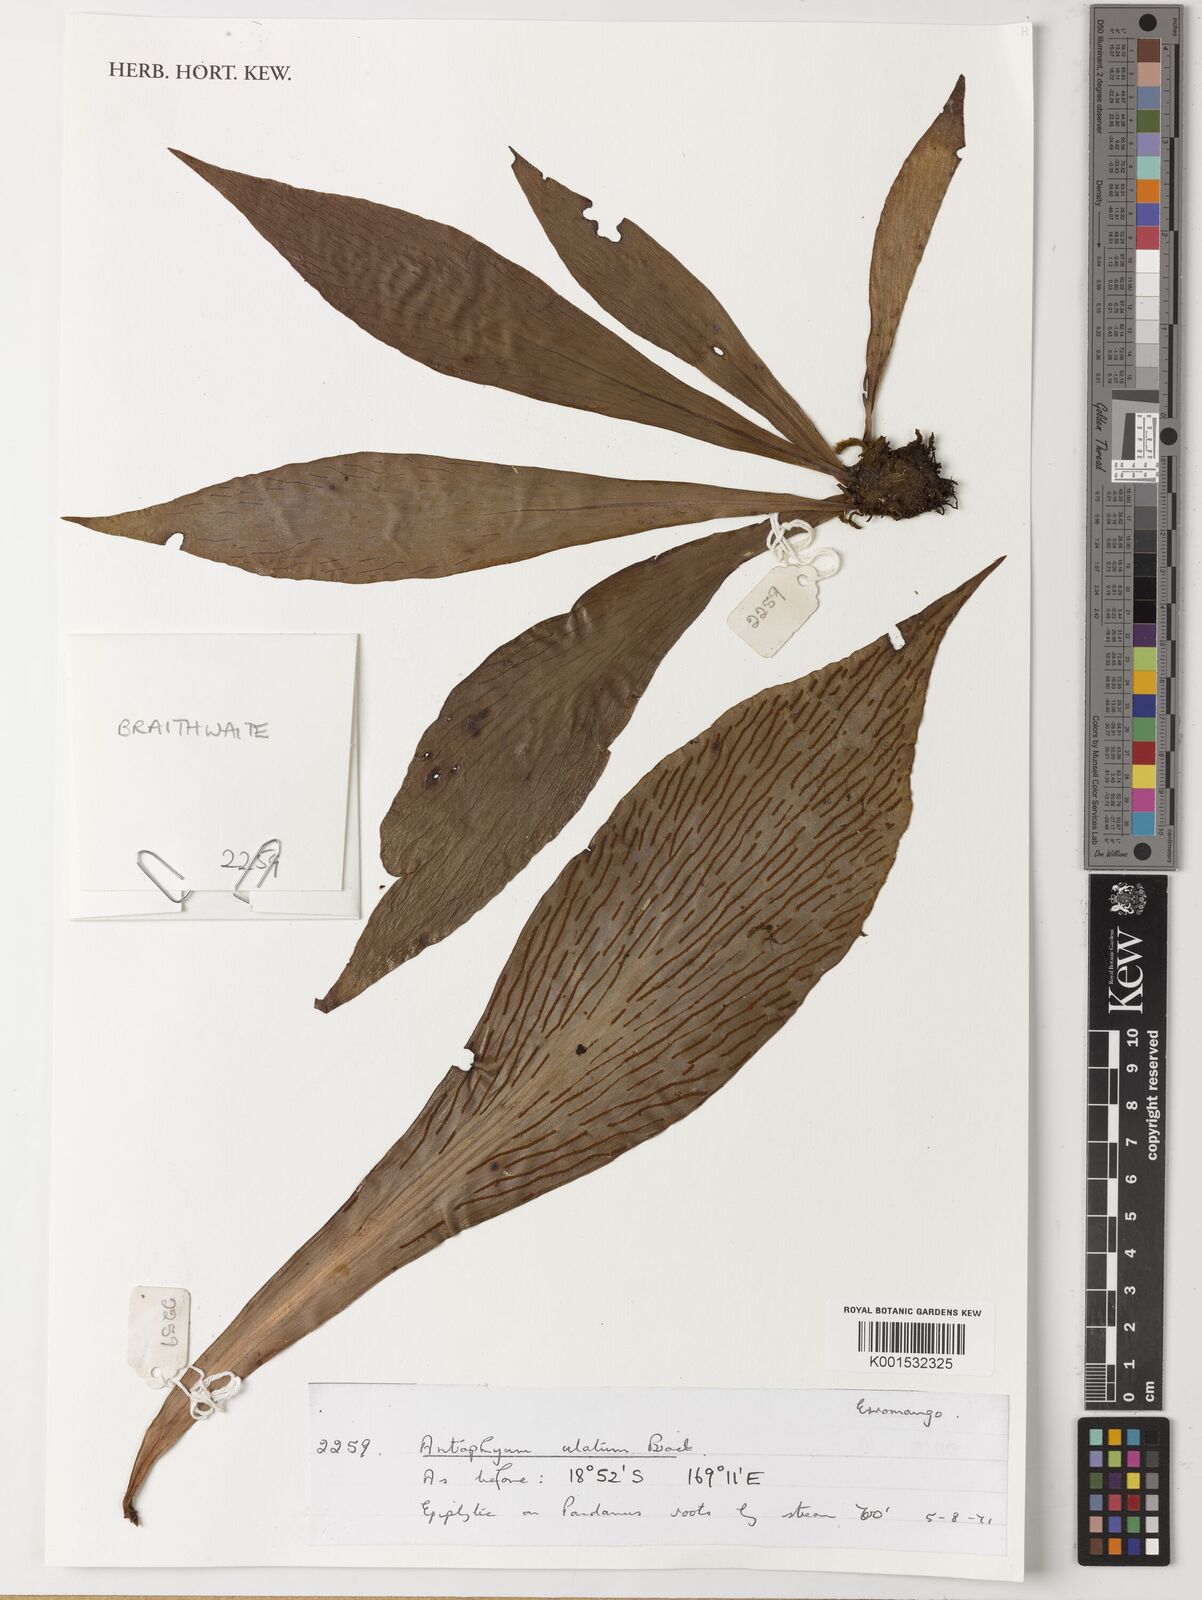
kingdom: Plantae
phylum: Tracheophyta
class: Polypodiopsida
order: Polypodiales
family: Pteridaceae
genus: Antrophyum
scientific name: Antrophyum callifolium
